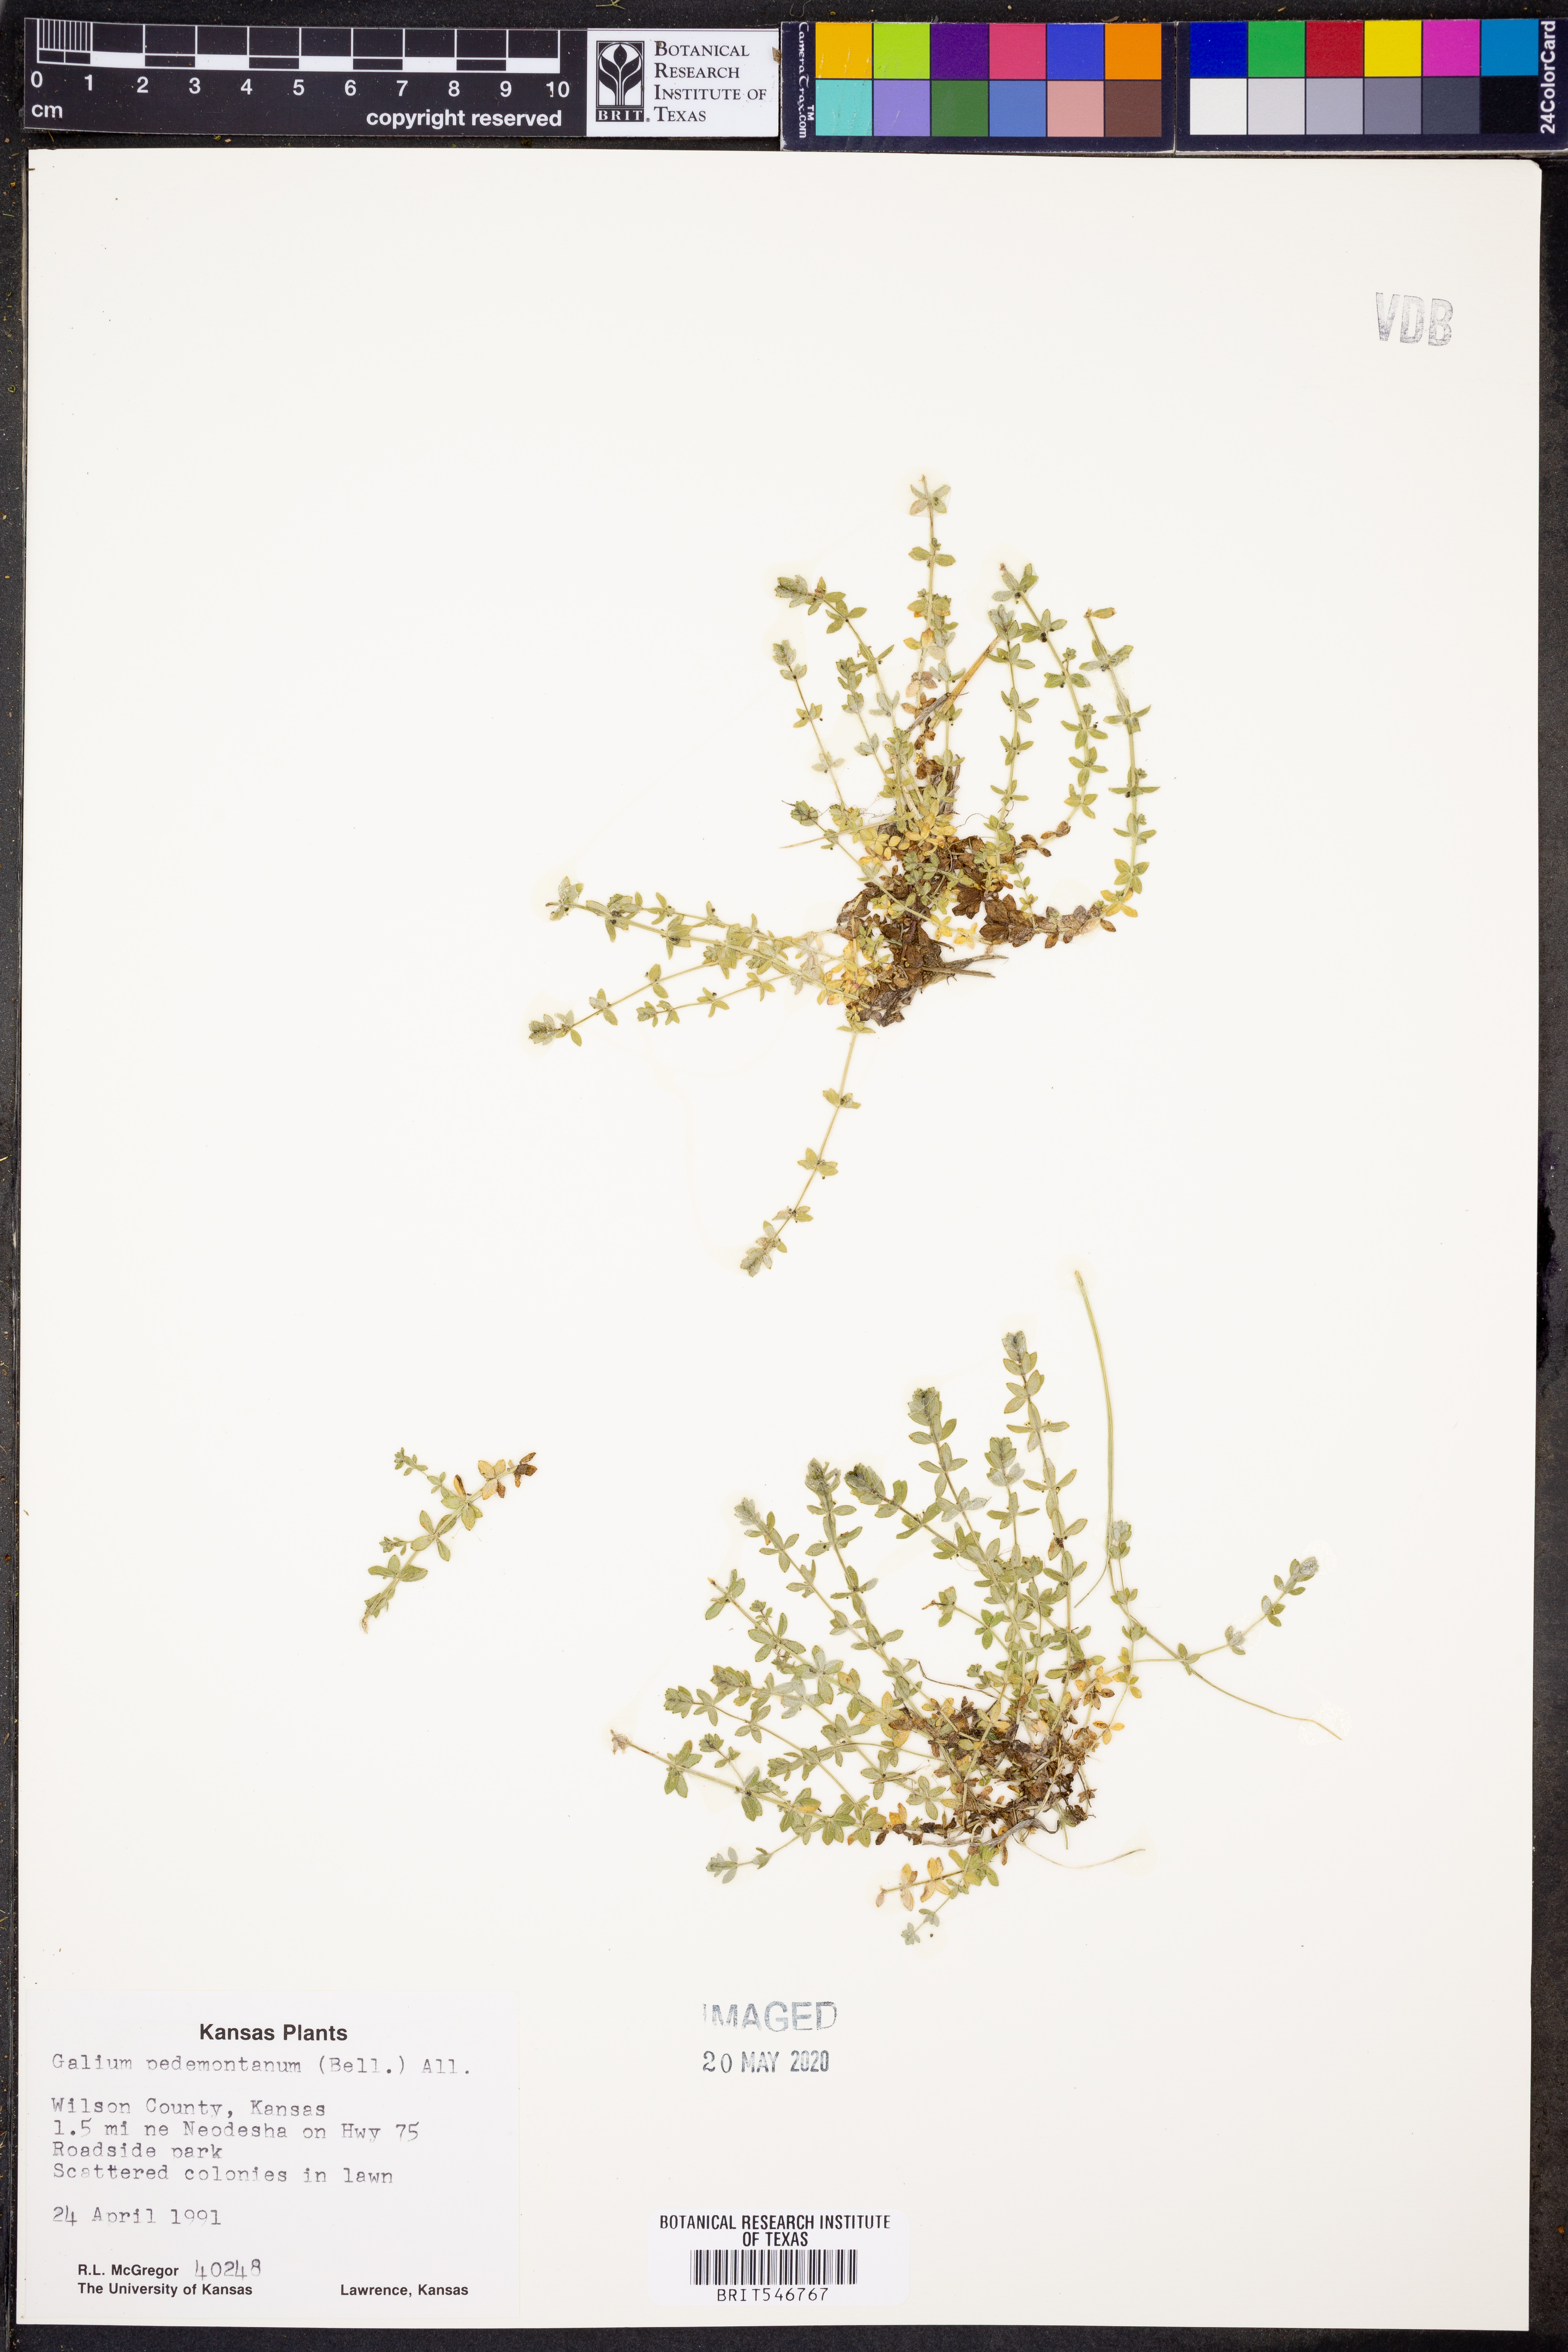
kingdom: Plantae
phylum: Tracheophyta
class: Magnoliopsida
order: Gentianales
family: Rubiaceae
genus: Cruciata
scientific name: Cruciata pedemontana
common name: Piedmont bedstraw
